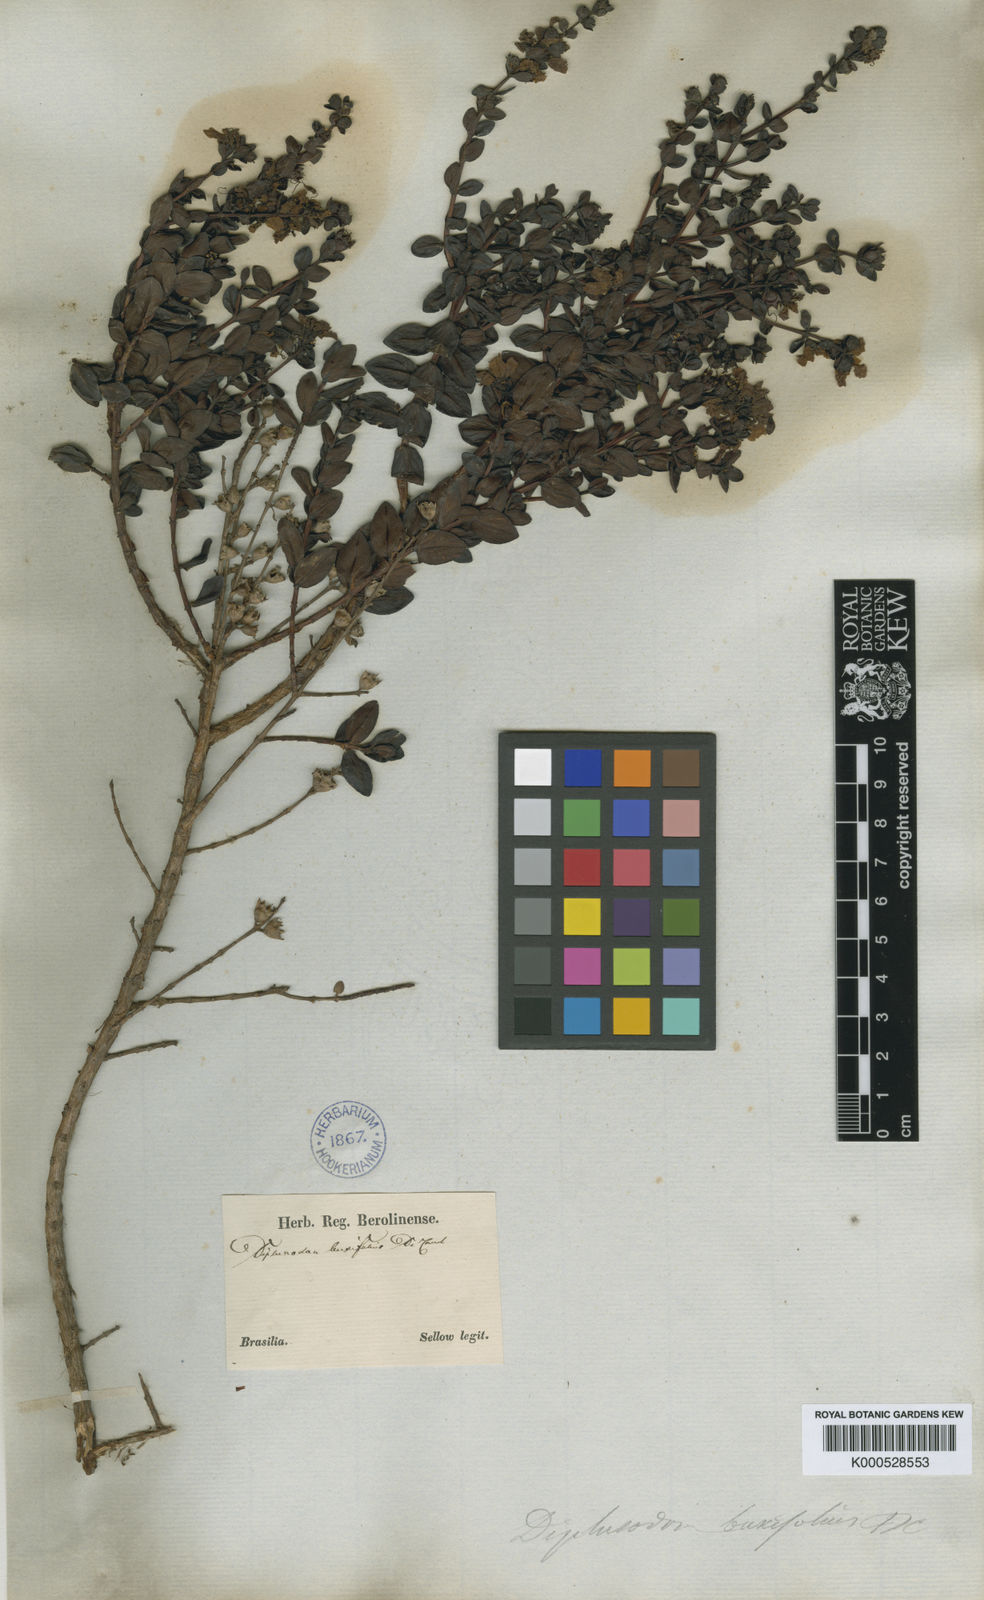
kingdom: Plantae
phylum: Tracheophyta
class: Magnoliopsida
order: Myrtales
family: Lythraceae
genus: Diplusodon
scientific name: Diplusodon buxifolius
